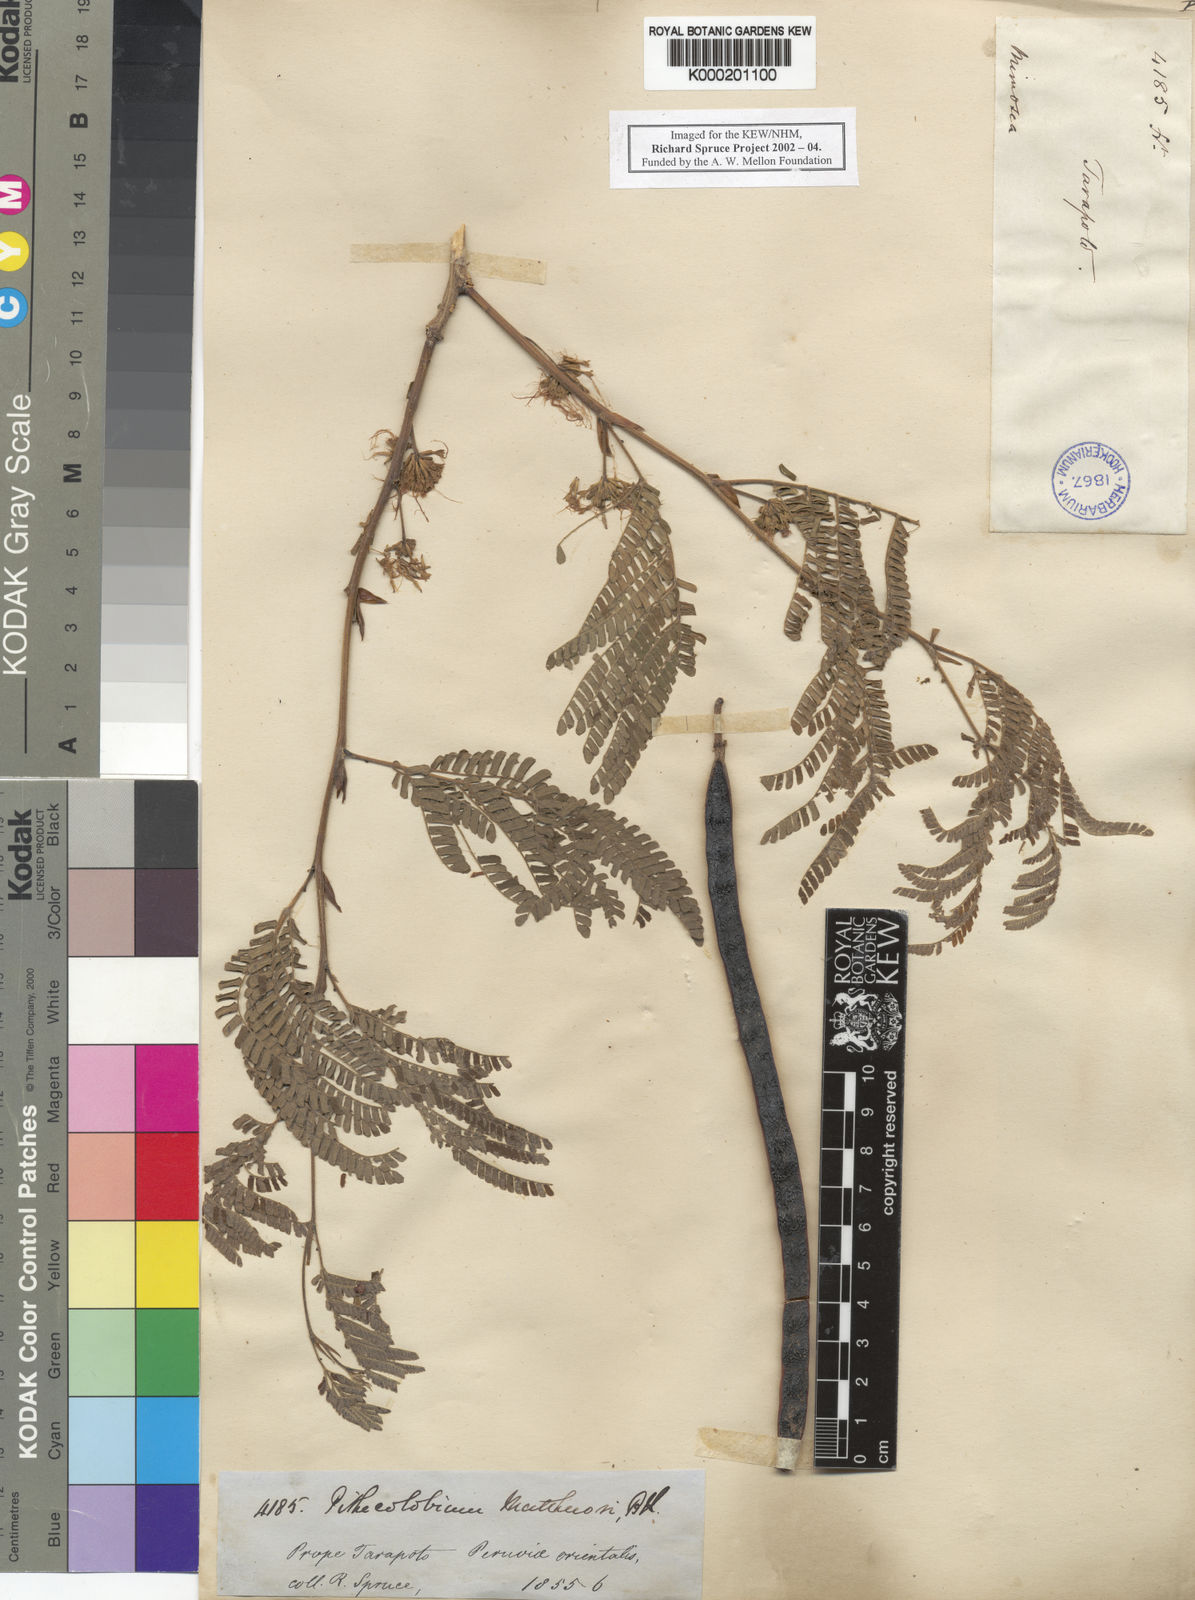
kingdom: Plantae
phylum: Tracheophyta
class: Magnoliopsida
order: Fabales
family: Fabaceae
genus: Chloroleucon
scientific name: Chloroleucon mangense
